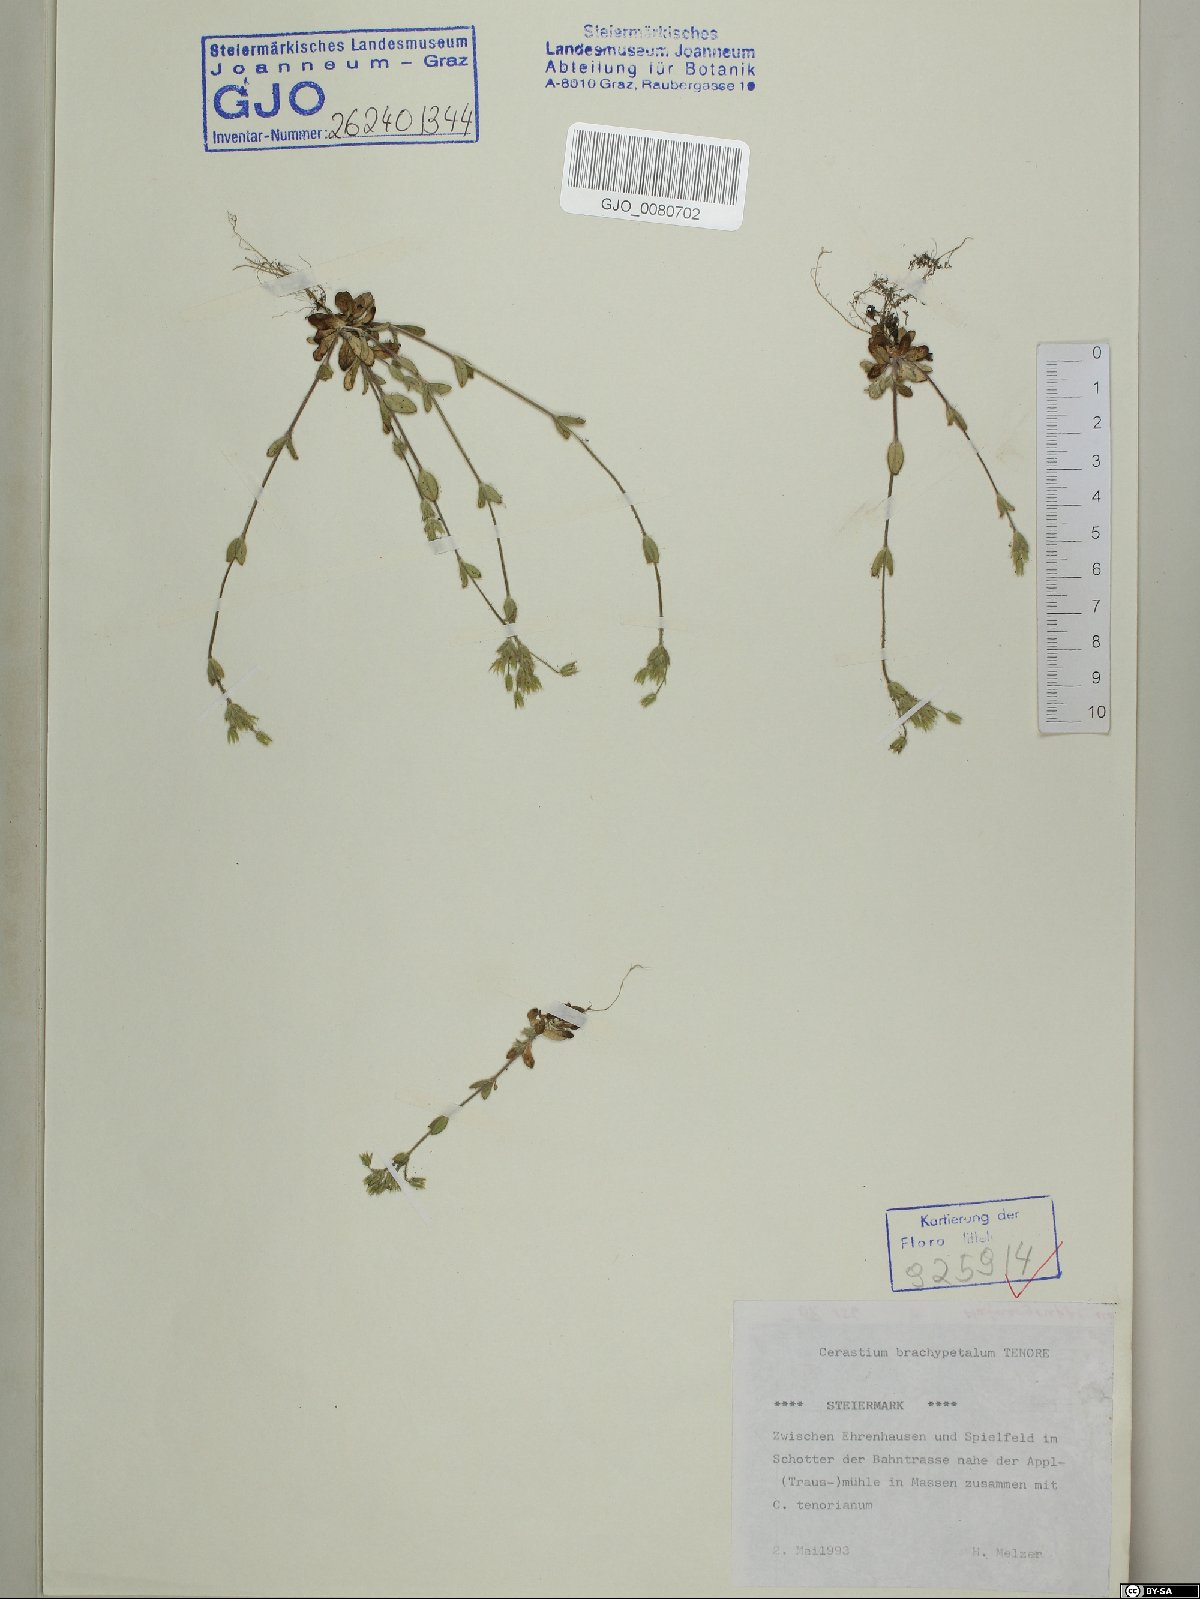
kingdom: Plantae
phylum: Tracheophyta
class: Magnoliopsida
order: Caryophyllales
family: Caryophyllaceae
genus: Cerastium
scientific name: Cerastium brachypetalum
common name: Grey mouse-ear
